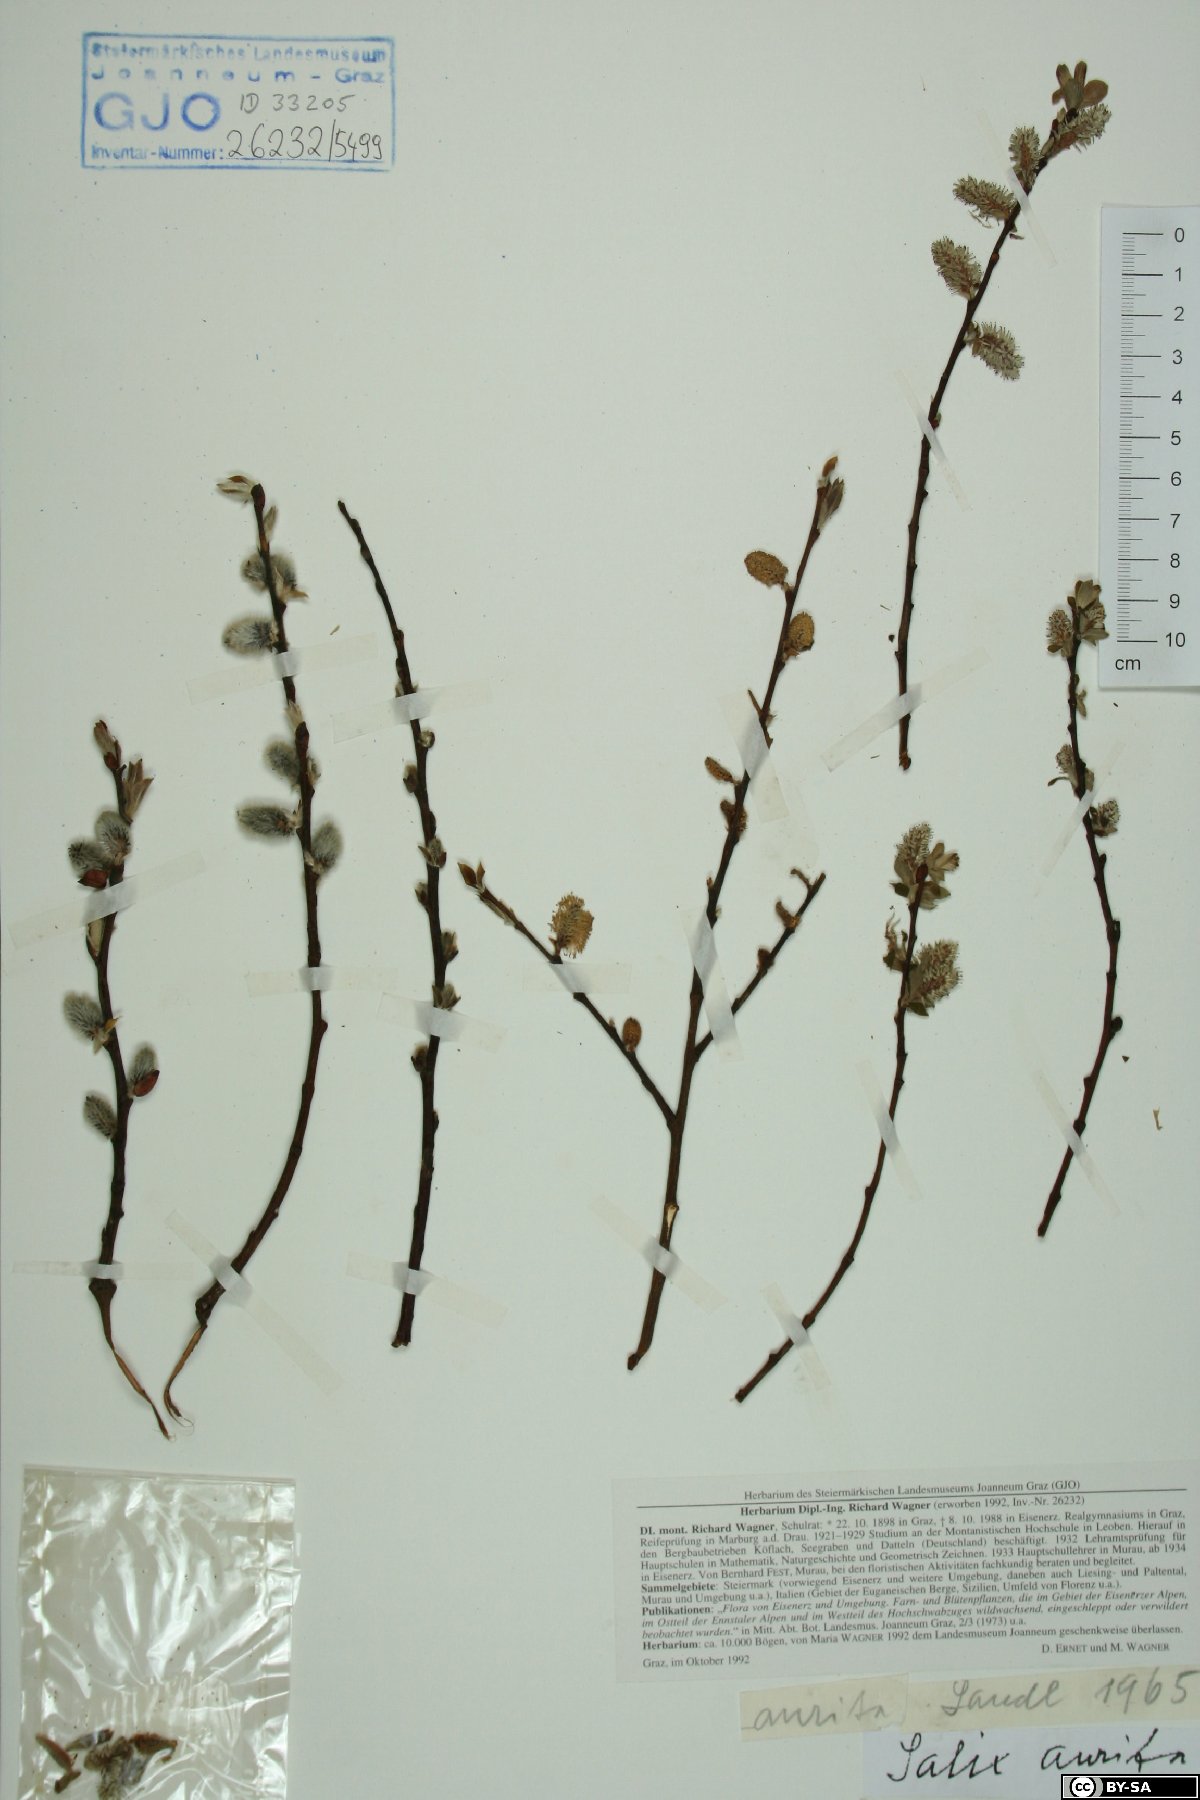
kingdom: Plantae
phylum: Tracheophyta
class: Magnoliopsida
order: Malpighiales
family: Salicaceae
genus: Salix
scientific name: Salix aurita
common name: Eared willow
